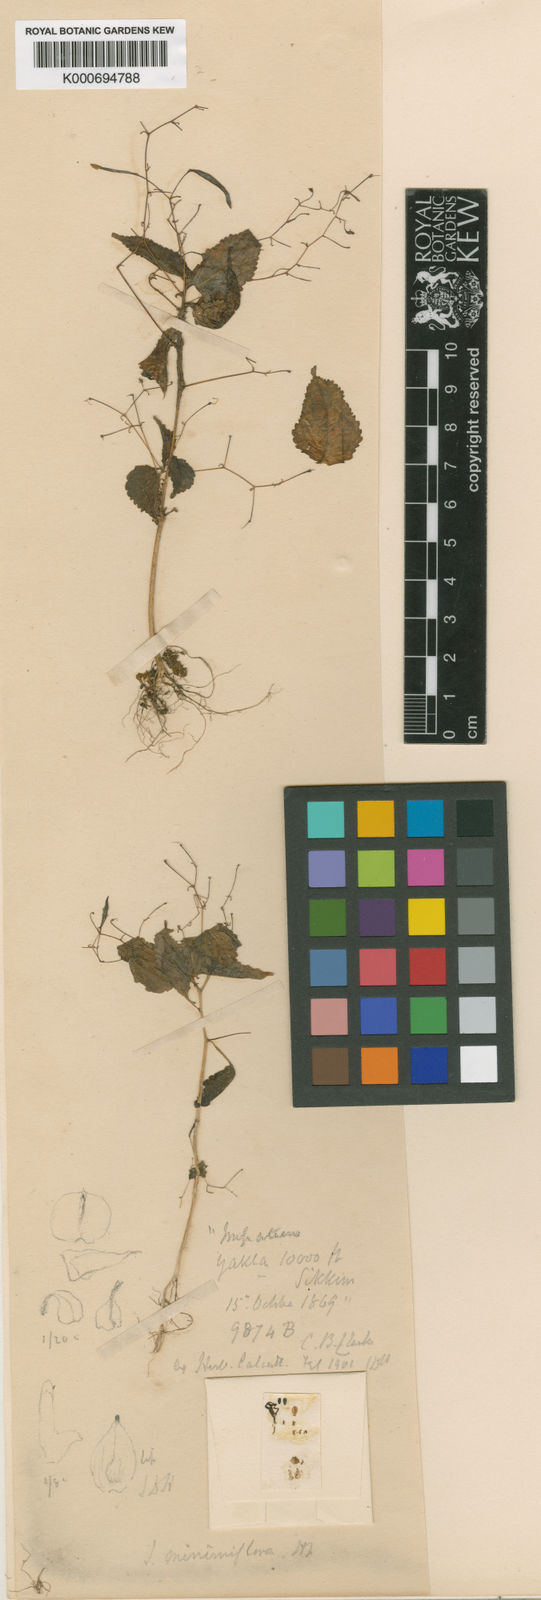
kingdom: Plantae
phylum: Tracheophyta
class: Magnoliopsida
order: Ericales
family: Balsaminaceae
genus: Impatiens
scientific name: Impatiens gammiei
